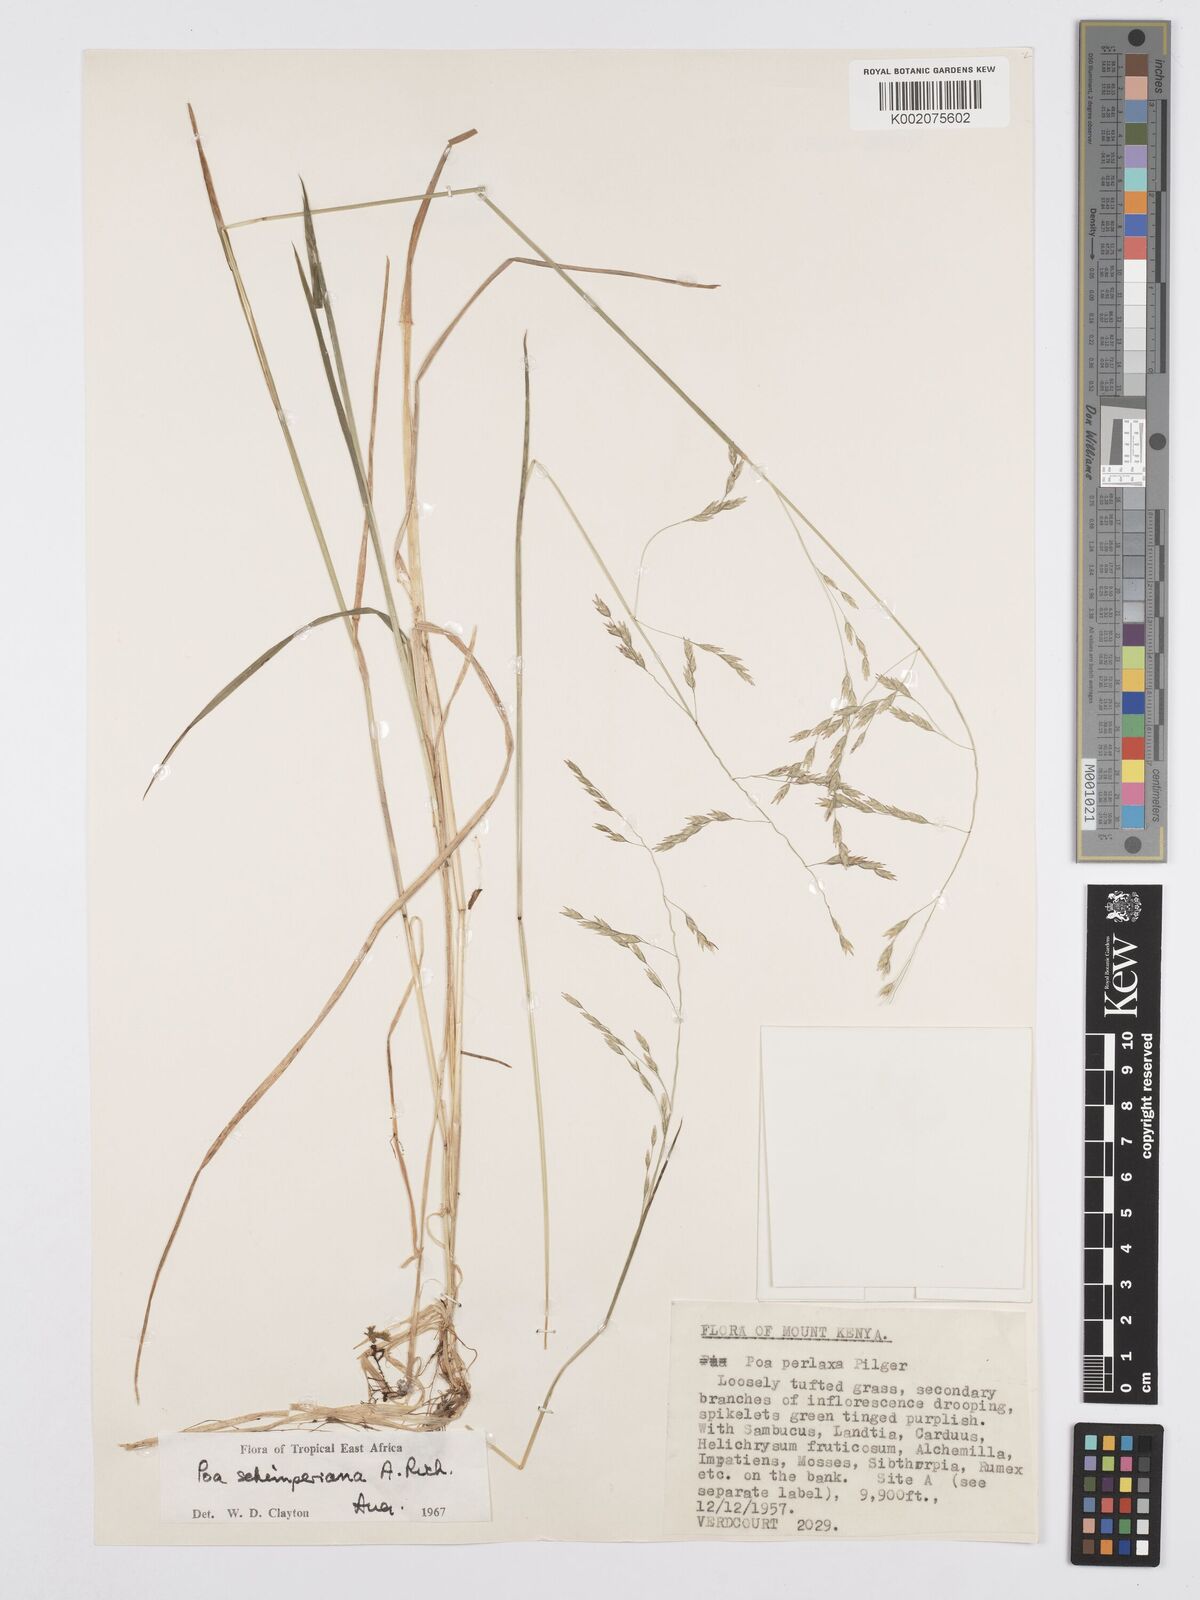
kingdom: Plantae
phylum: Tracheophyta
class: Liliopsida
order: Poales
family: Poaceae
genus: Poa
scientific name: Poa schimperiana
